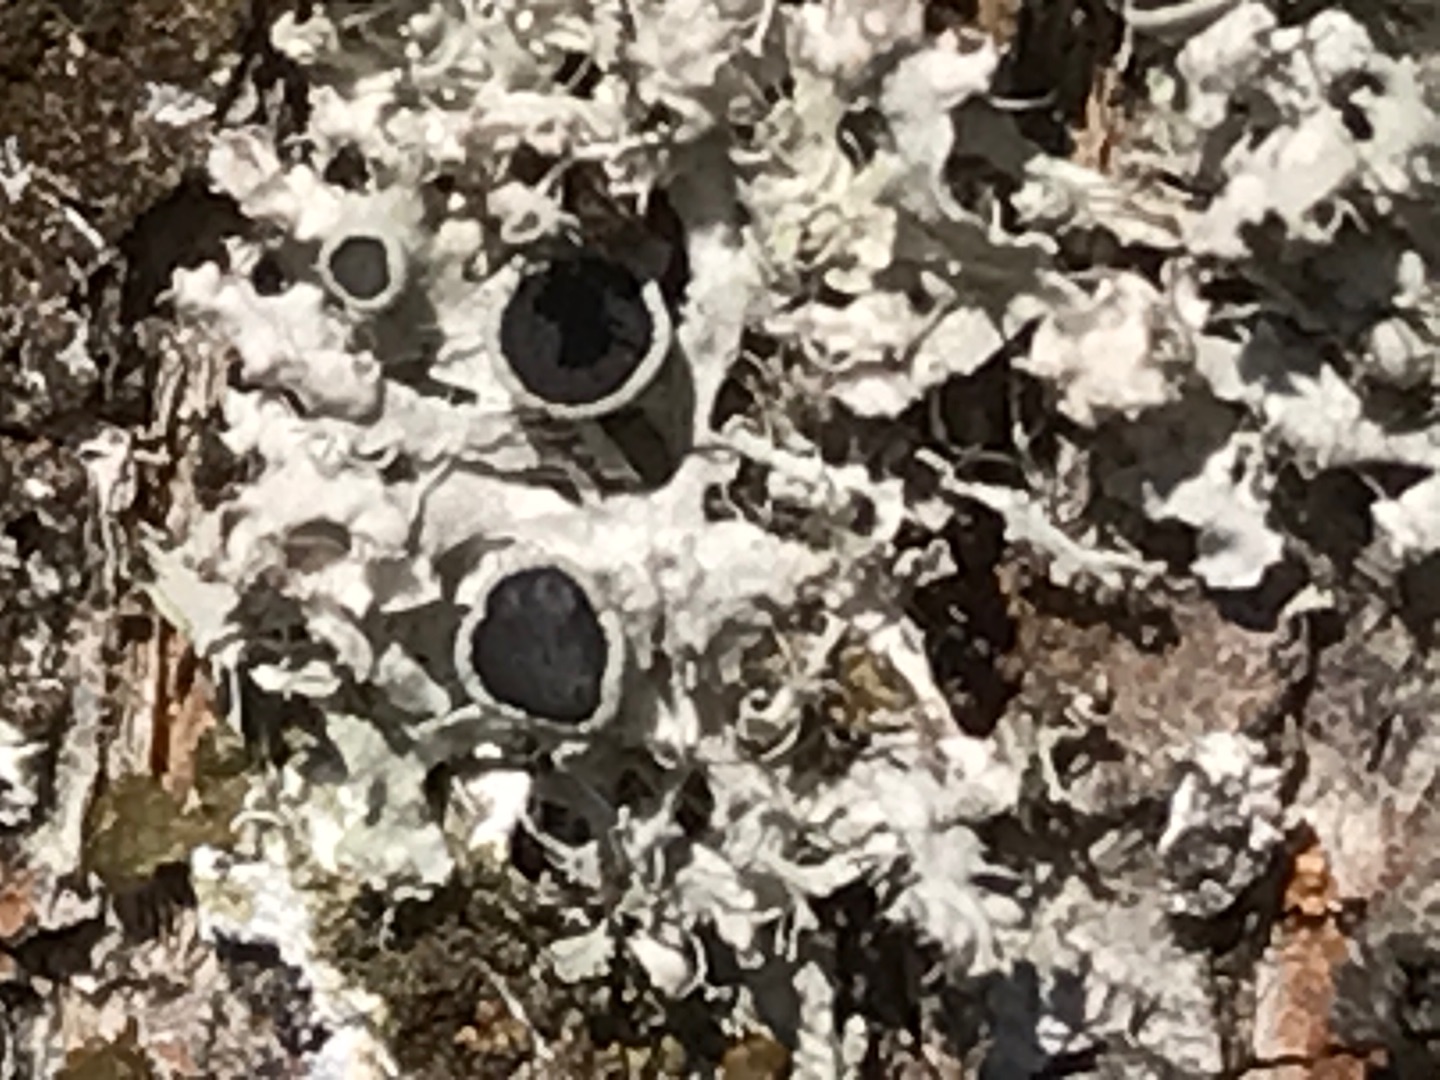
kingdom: Fungi
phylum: Ascomycota
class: Lecanoromycetes
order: Caliciales
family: Physciaceae
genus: Physcia
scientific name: Physcia adscendens
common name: Hætte-rosetlav
